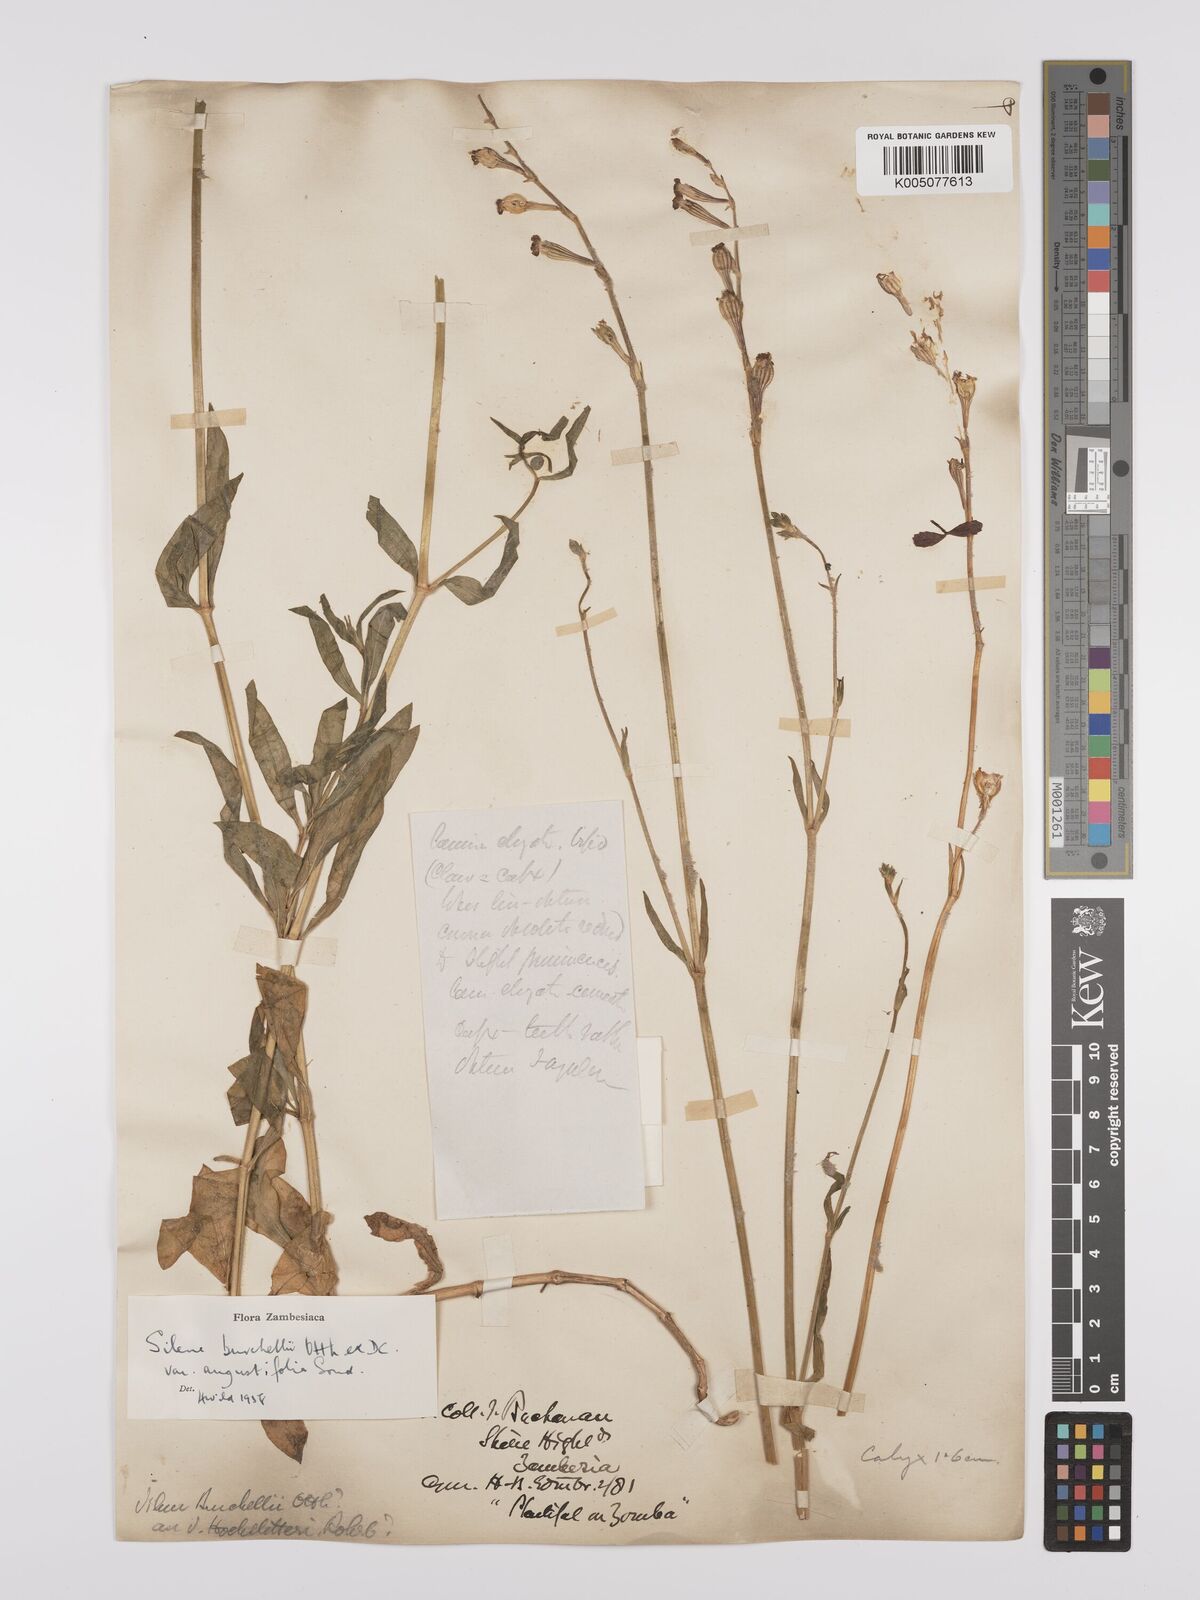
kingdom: Plantae
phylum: Tracheophyta
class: Magnoliopsida
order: Caryophyllales
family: Caryophyllaceae
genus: Silene
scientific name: Silene burchellii
